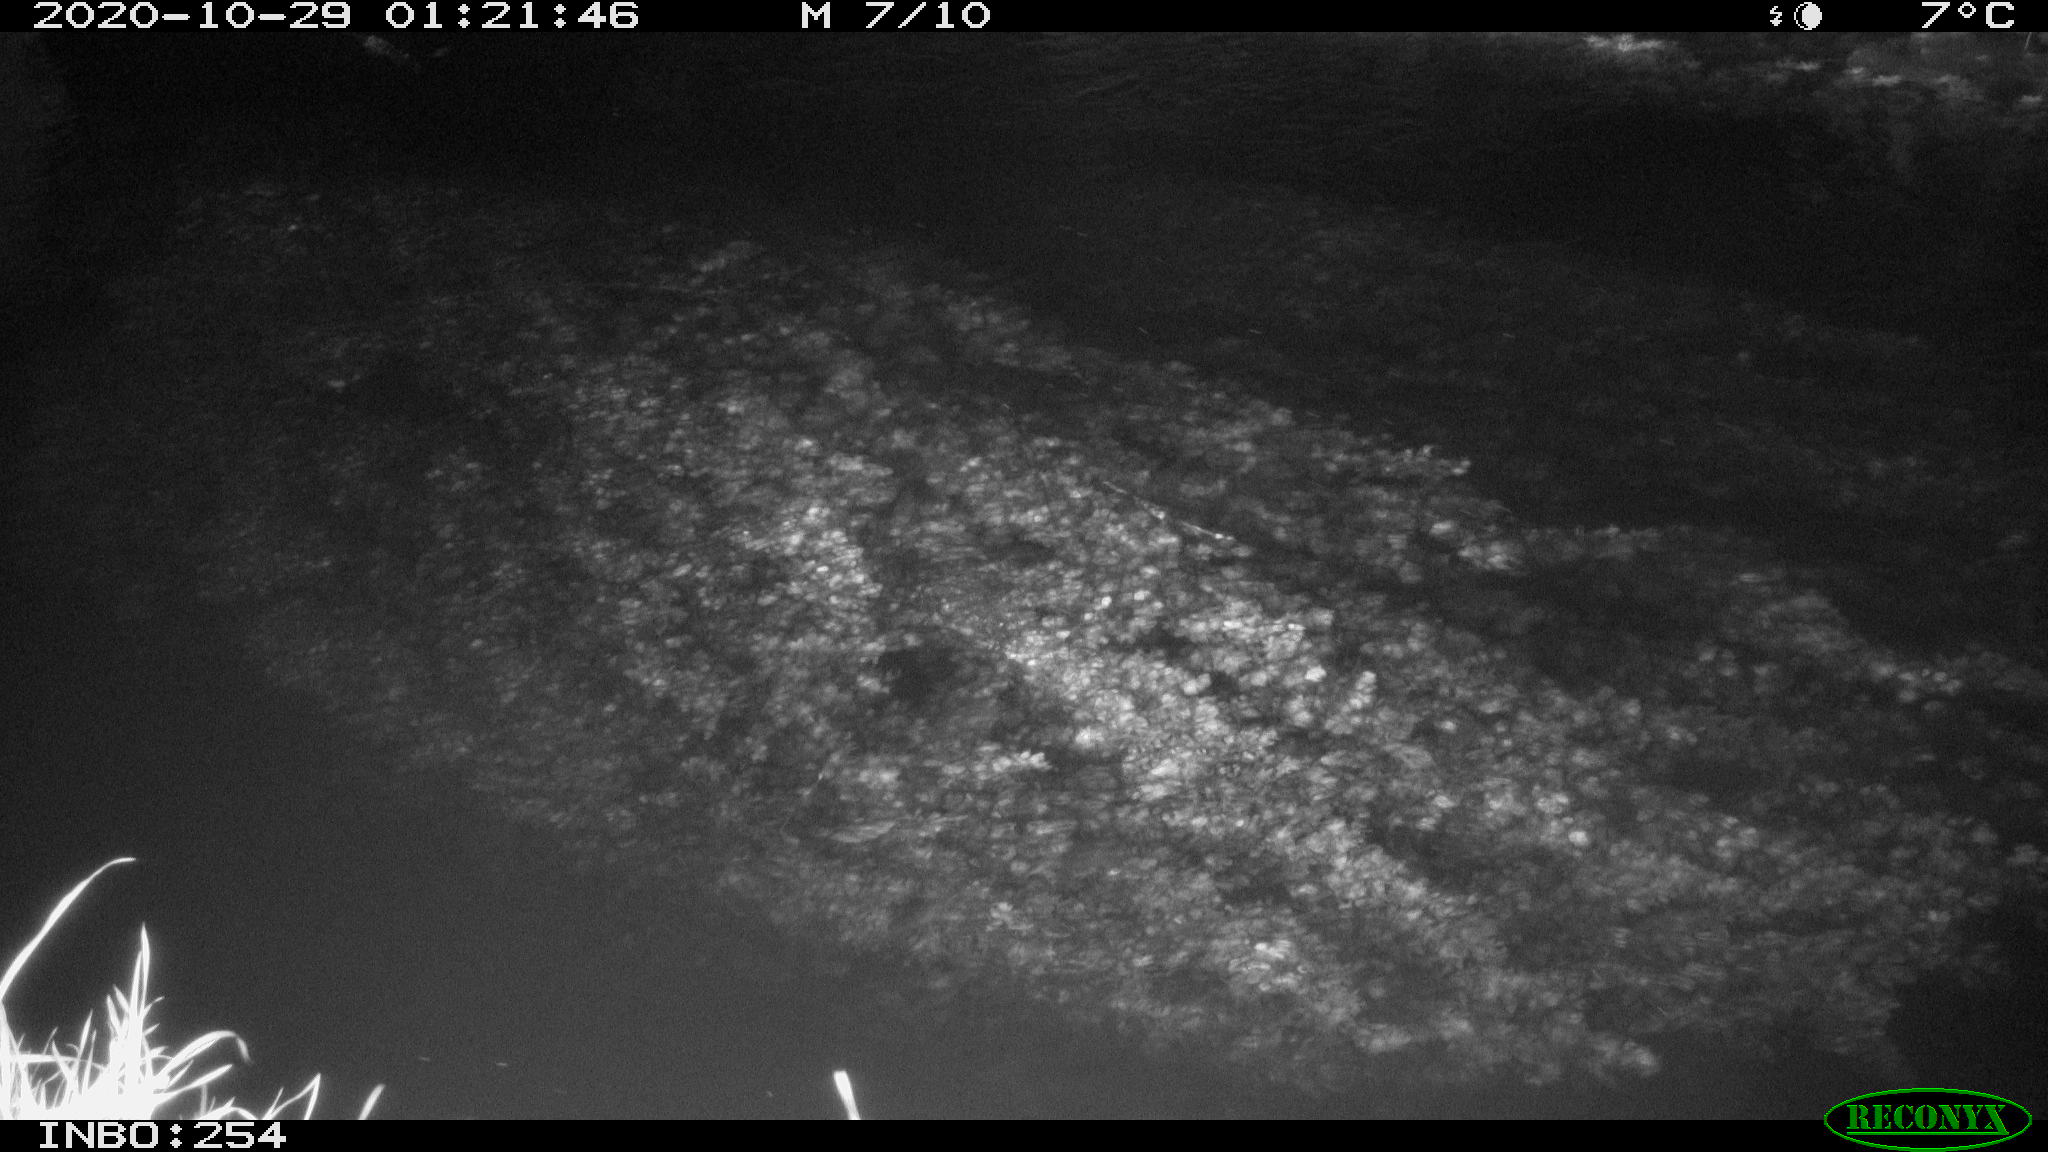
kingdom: Animalia
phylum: Chordata
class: Aves
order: Anseriformes
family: Anatidae
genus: Anas
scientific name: Anas platyrhynchos
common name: Mallard
